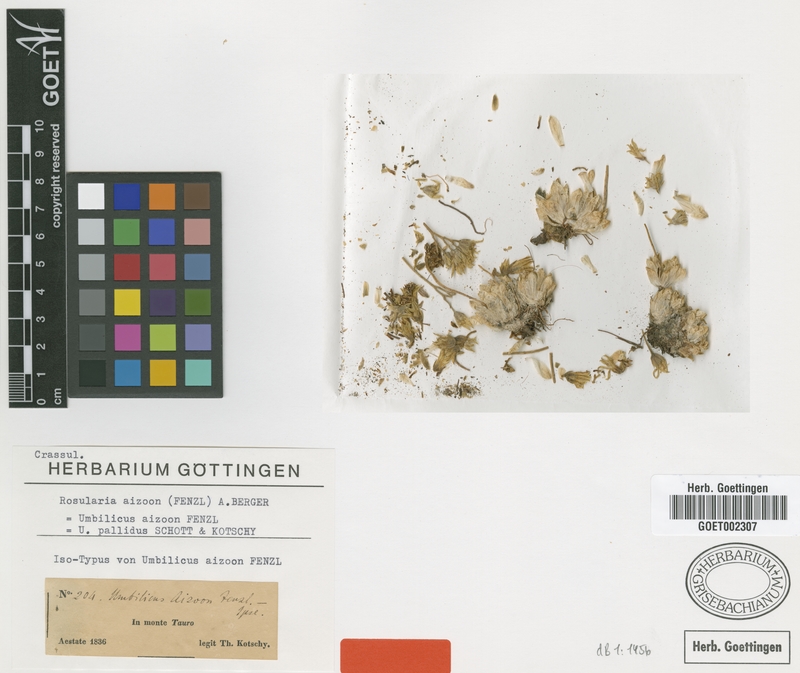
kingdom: Plantae
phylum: Tracheophyta
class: Magnoliopsida
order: Saxifragales
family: Crassulaceae
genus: Prometheum
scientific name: Prometheum aizoon
